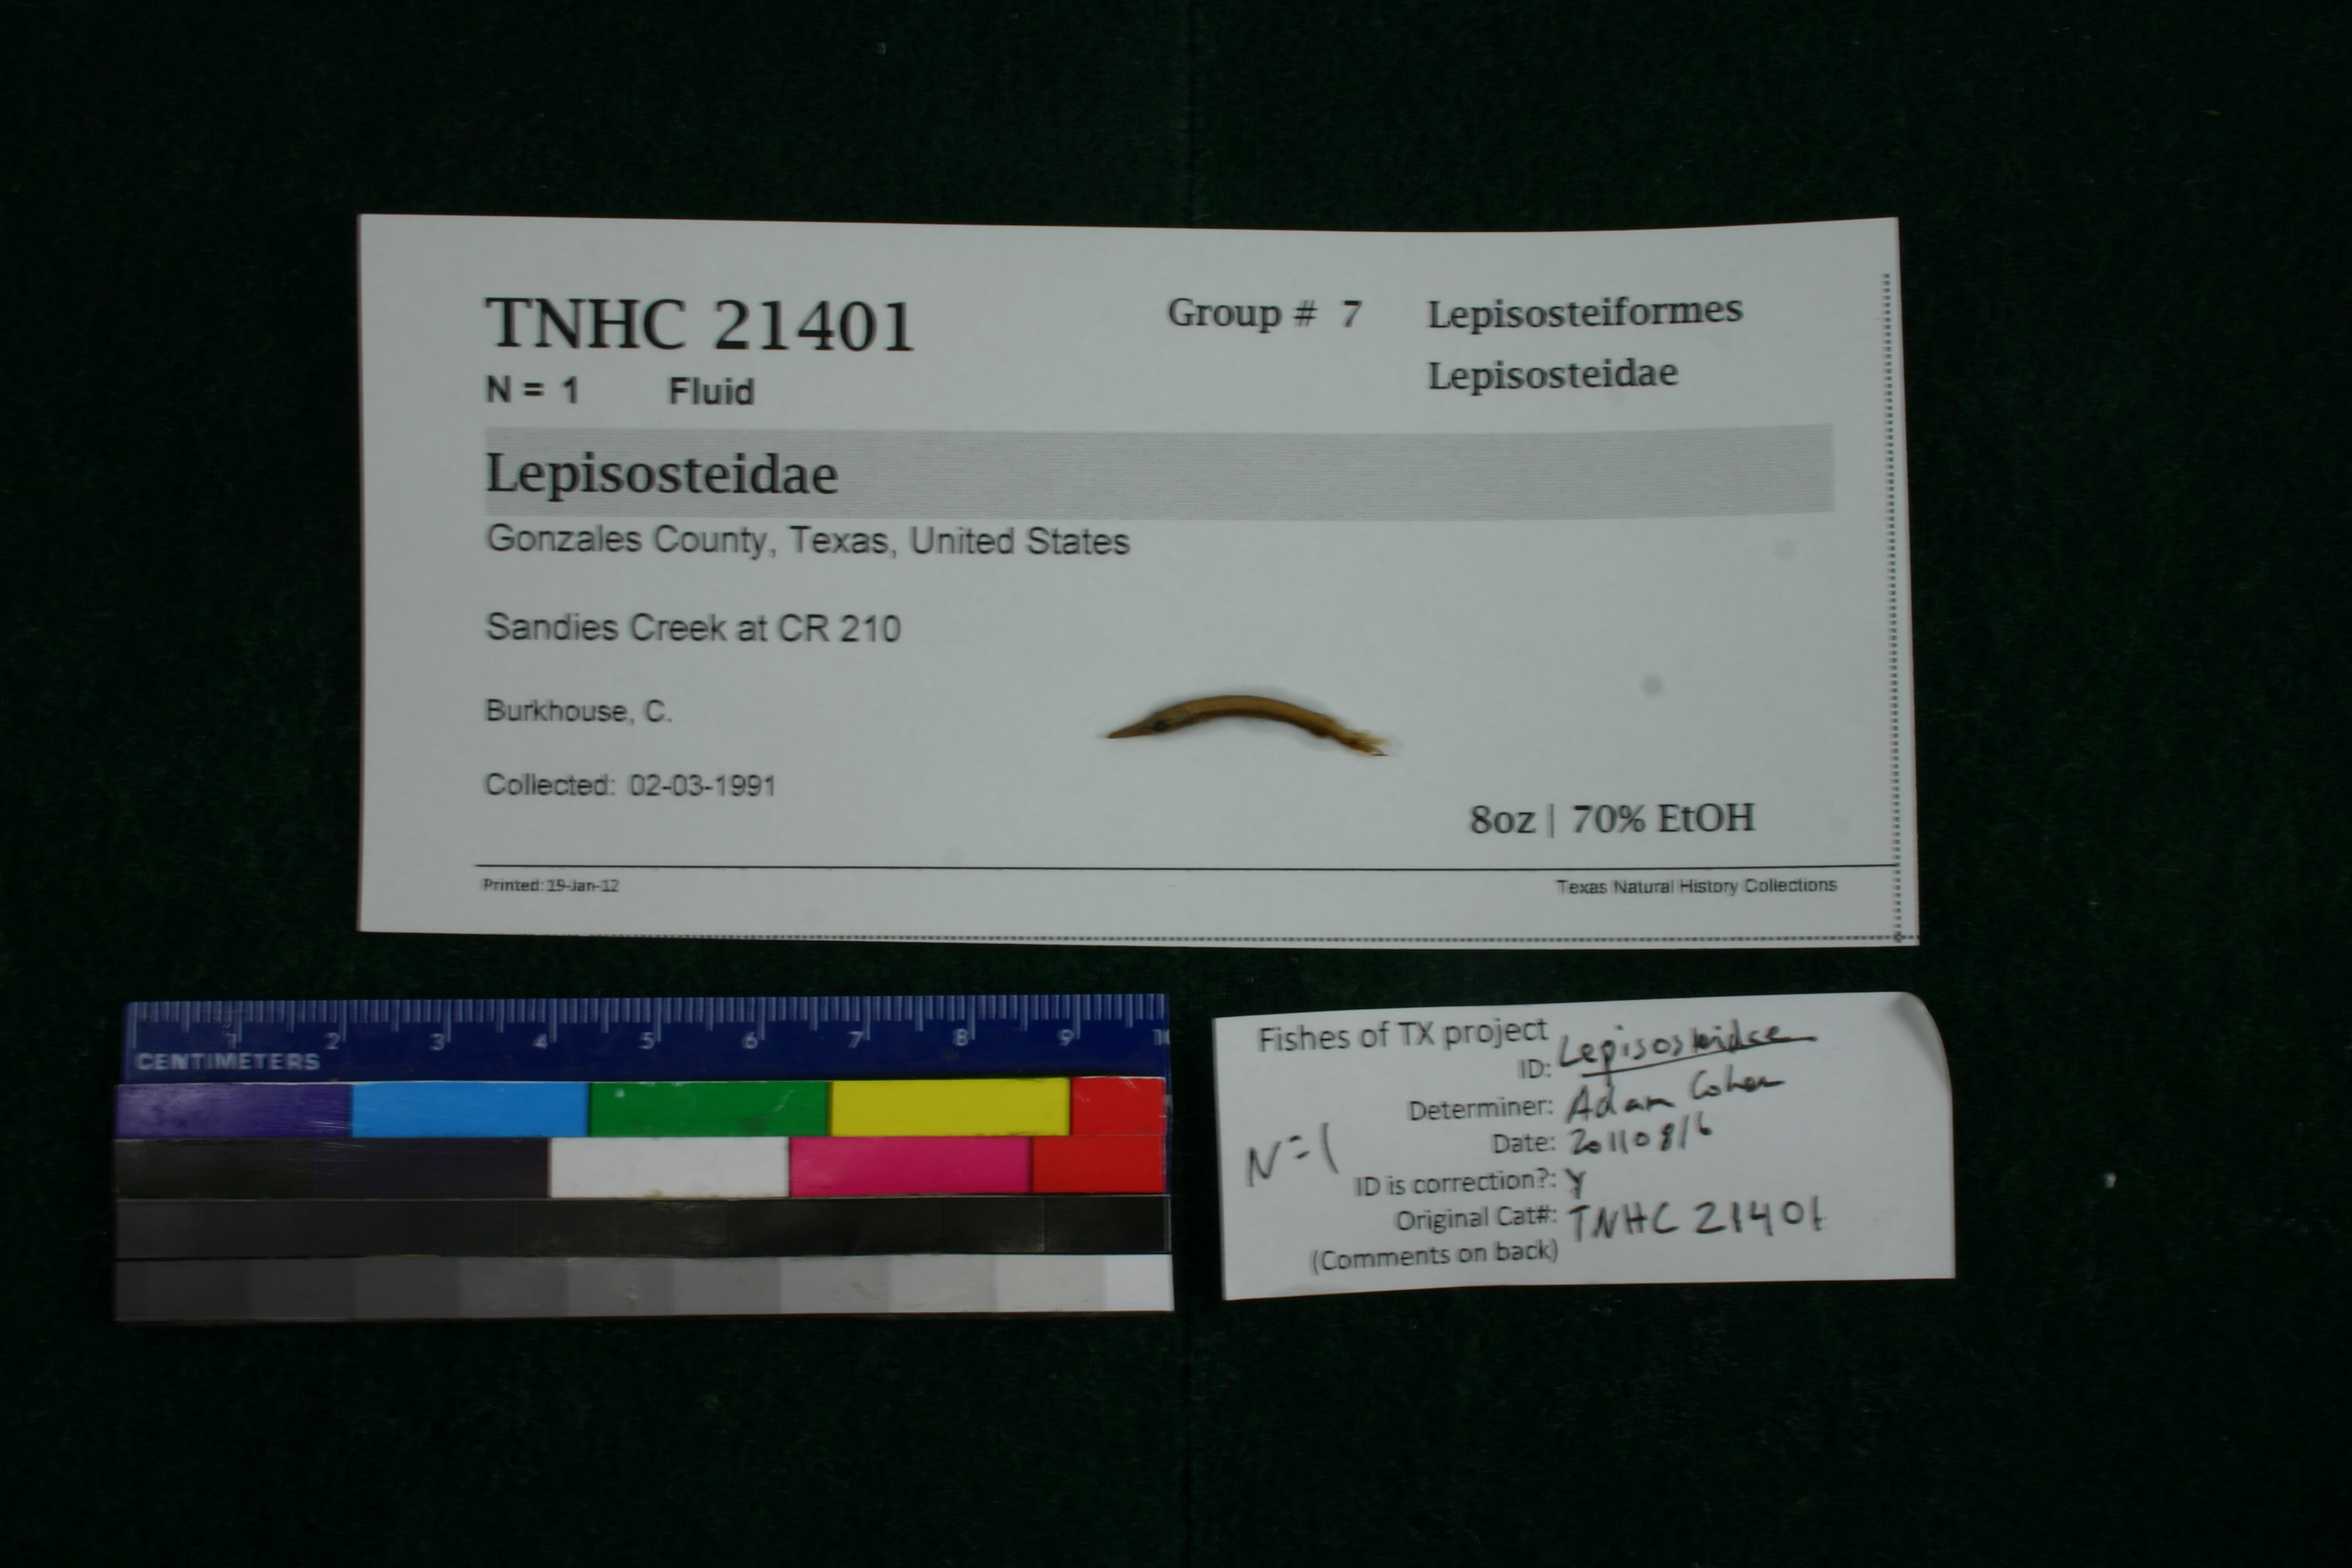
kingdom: Animalia
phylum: Chordata
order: Lepisosteiformes
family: Lepisosteidae
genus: Lepisosteus
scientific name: Lepisosteus oculatus
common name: Spotted gar
